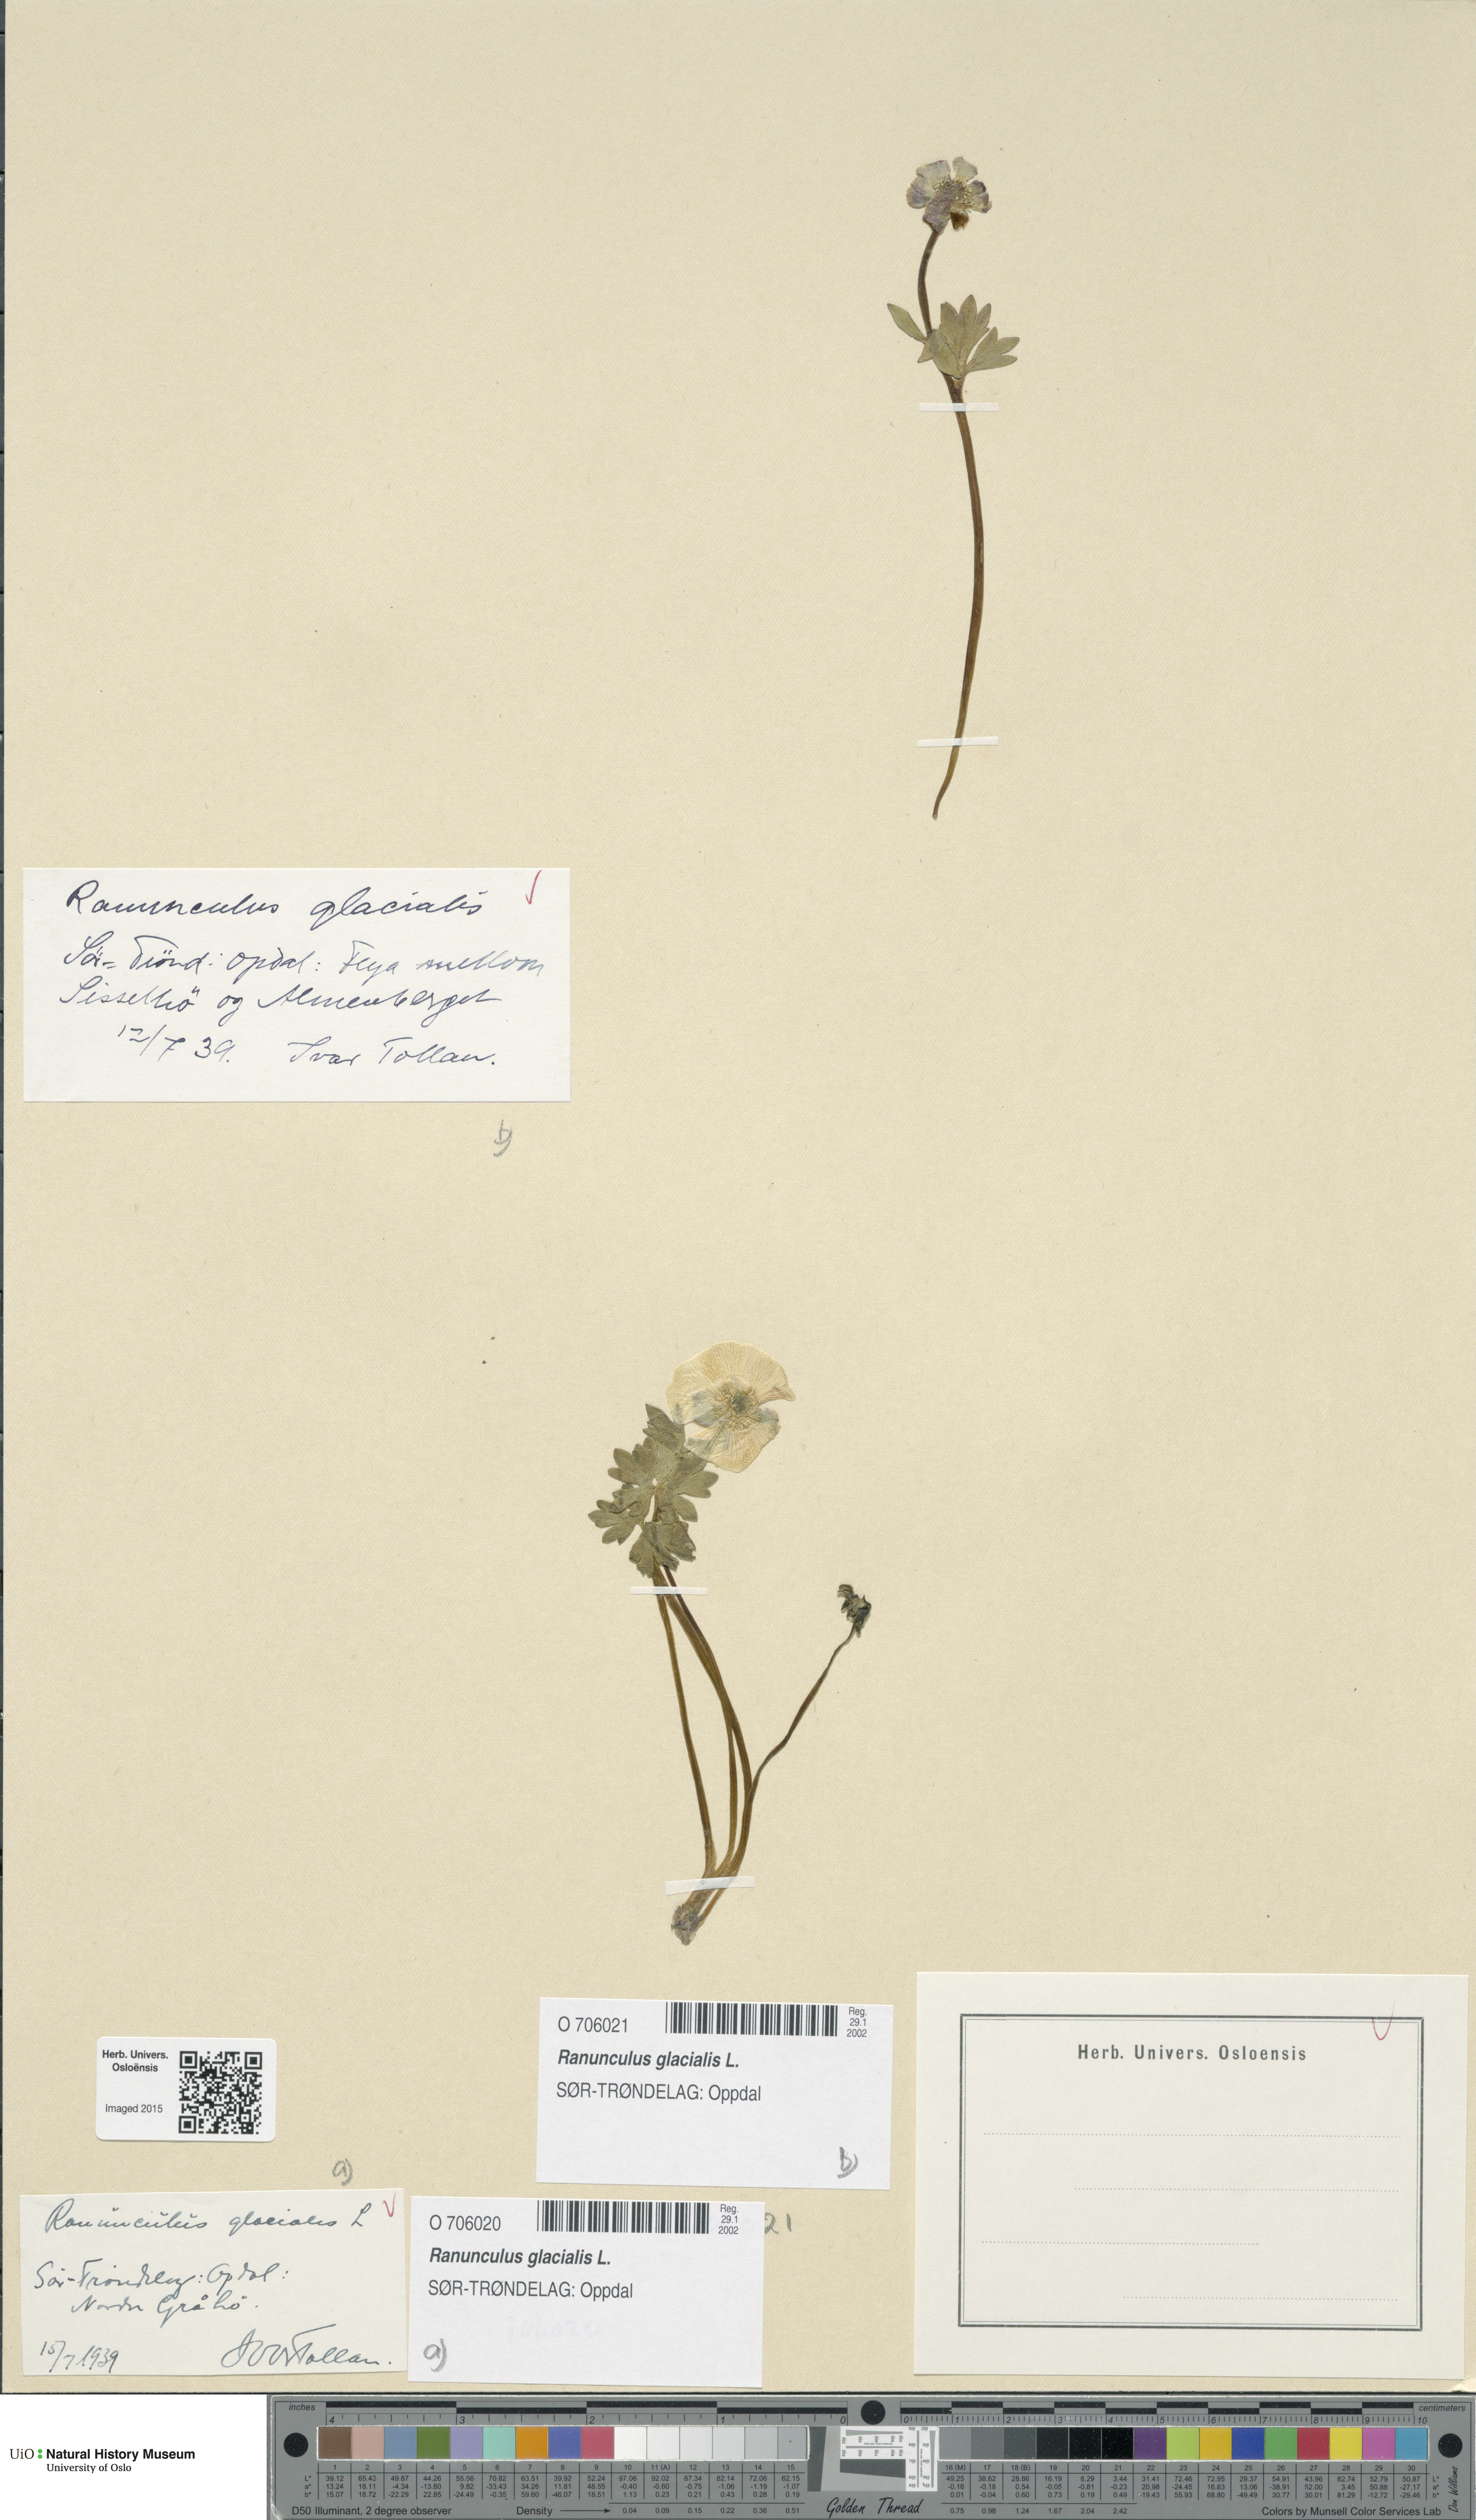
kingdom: Plantae
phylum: Tracheophyta
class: Magnoliopsida
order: Ranunculales
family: Ranunculaceae
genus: Ranunculus
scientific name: Ranunculus glacialis
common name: Glacier buttercup
